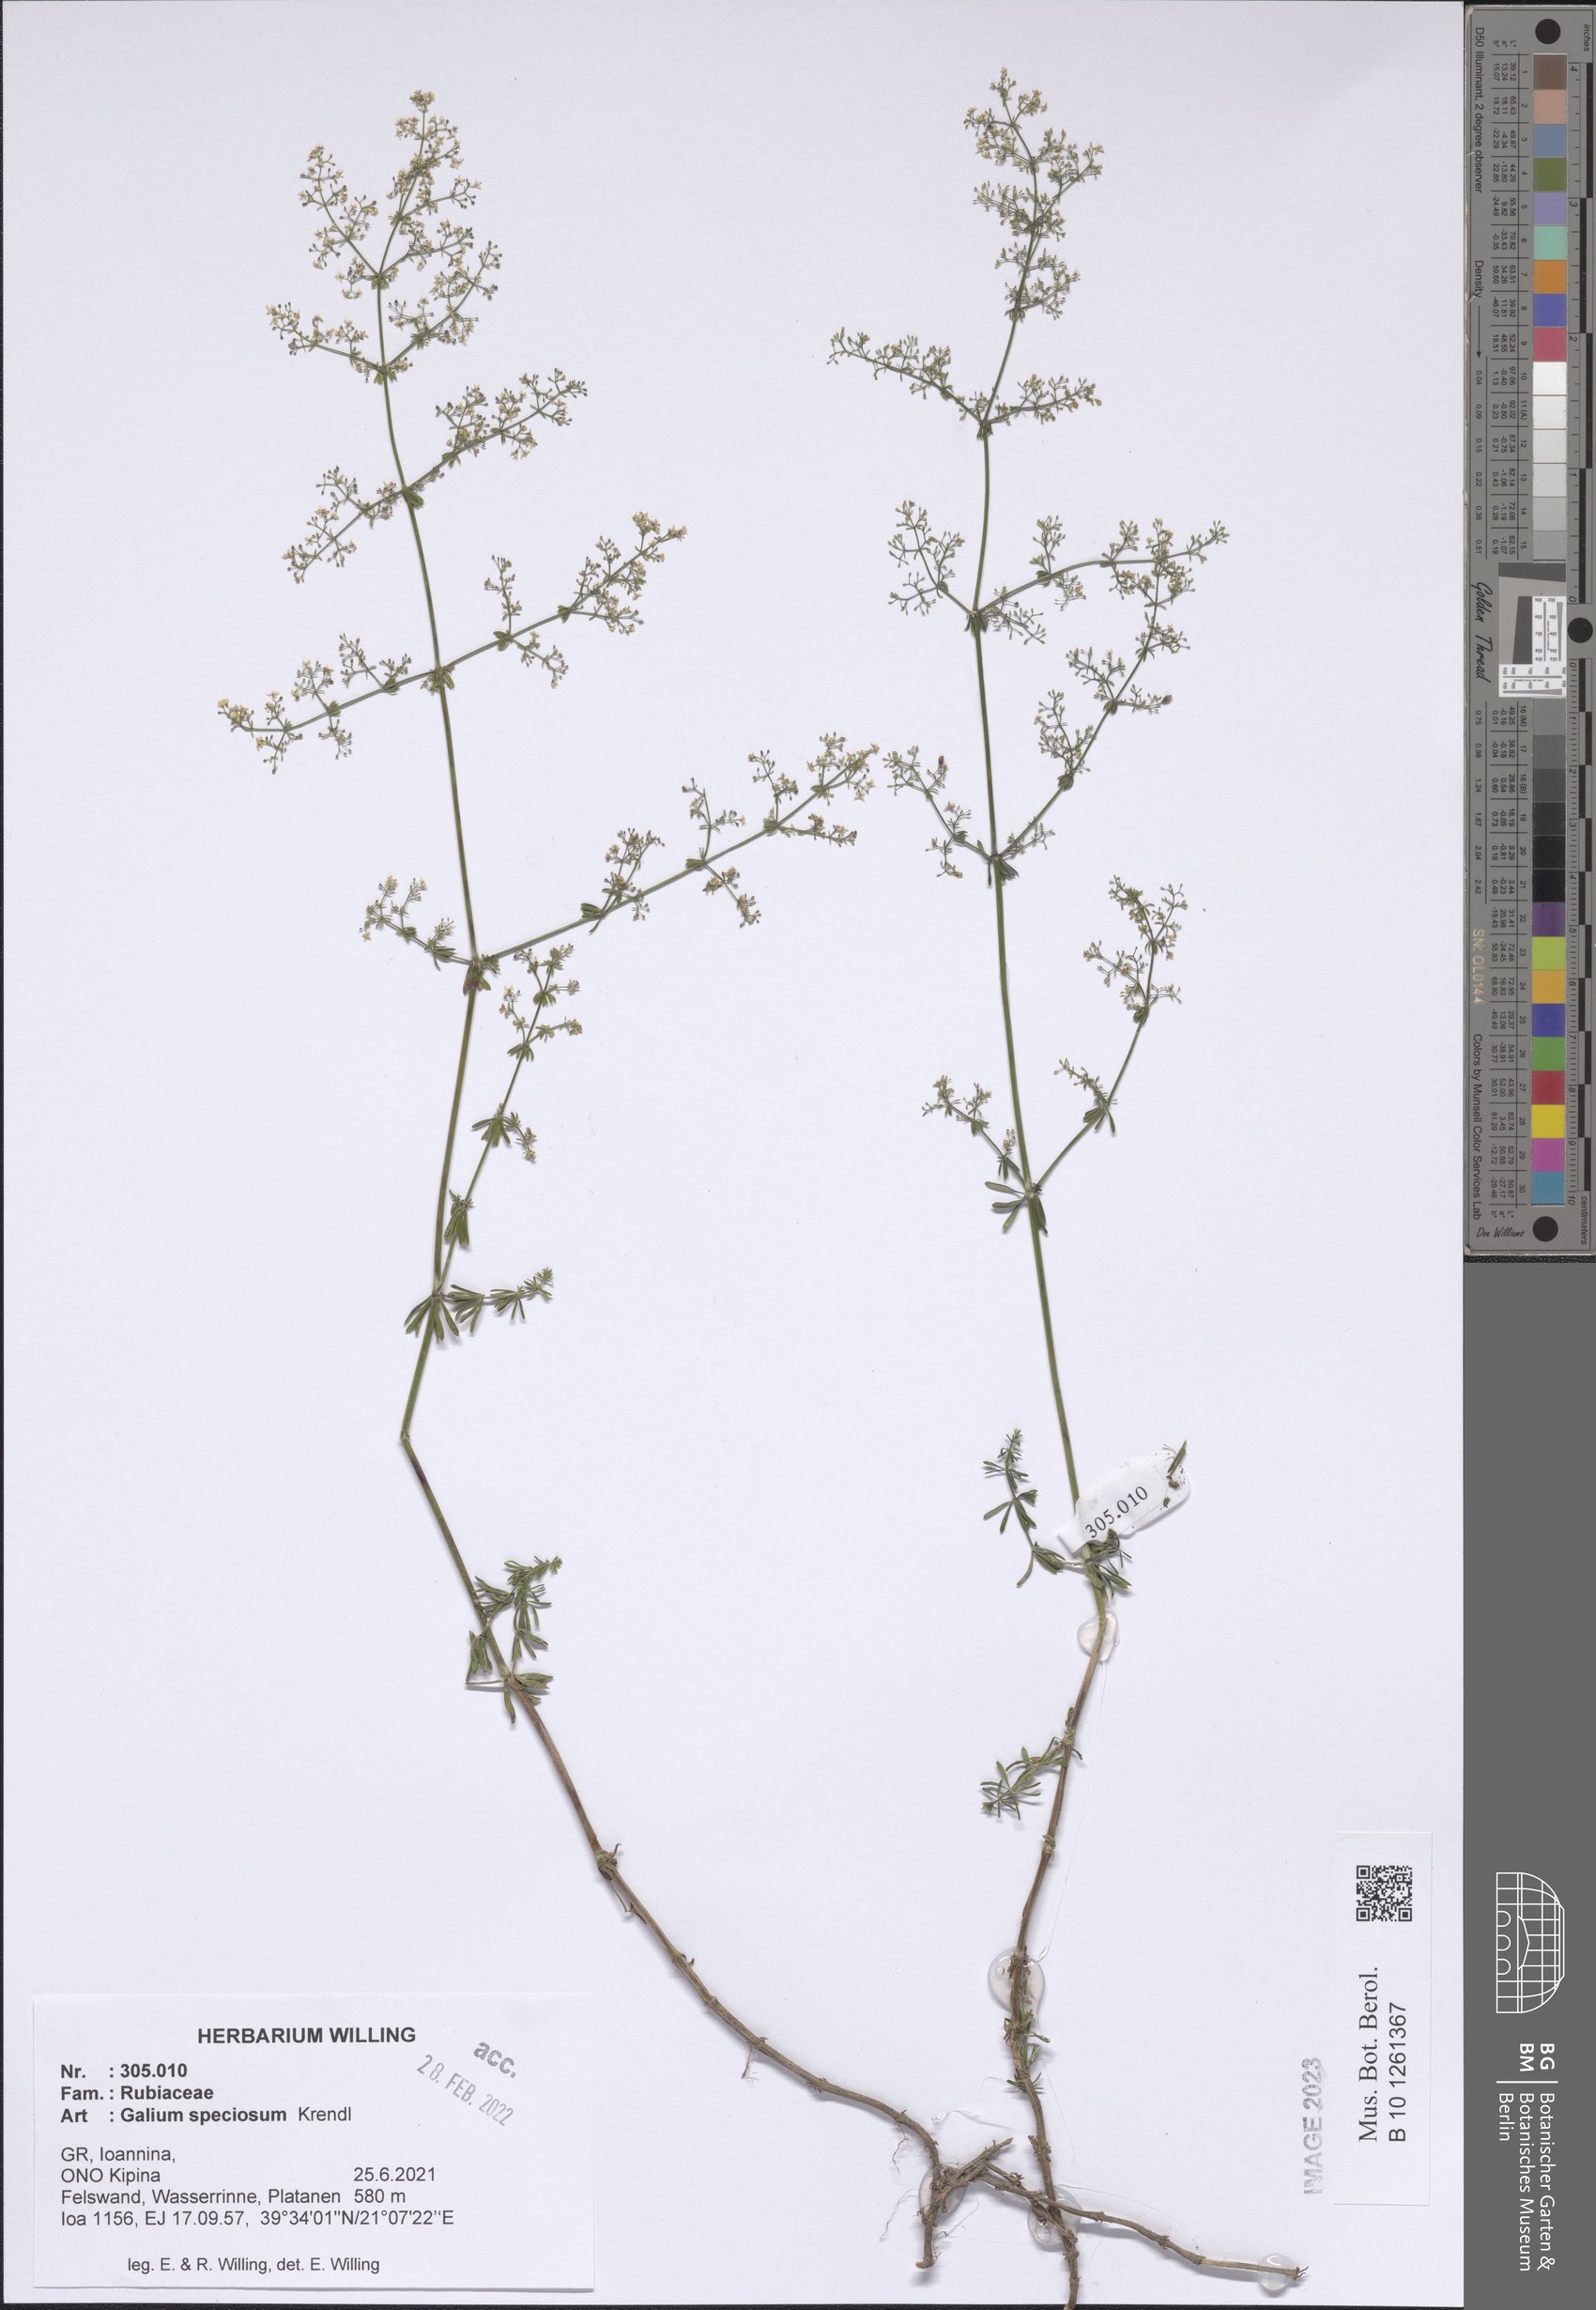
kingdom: Plantae
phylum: Tracheophyta
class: Magnoliopsida
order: Gentianales
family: Rubiaceae
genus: Galium
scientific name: Galium speciosum
